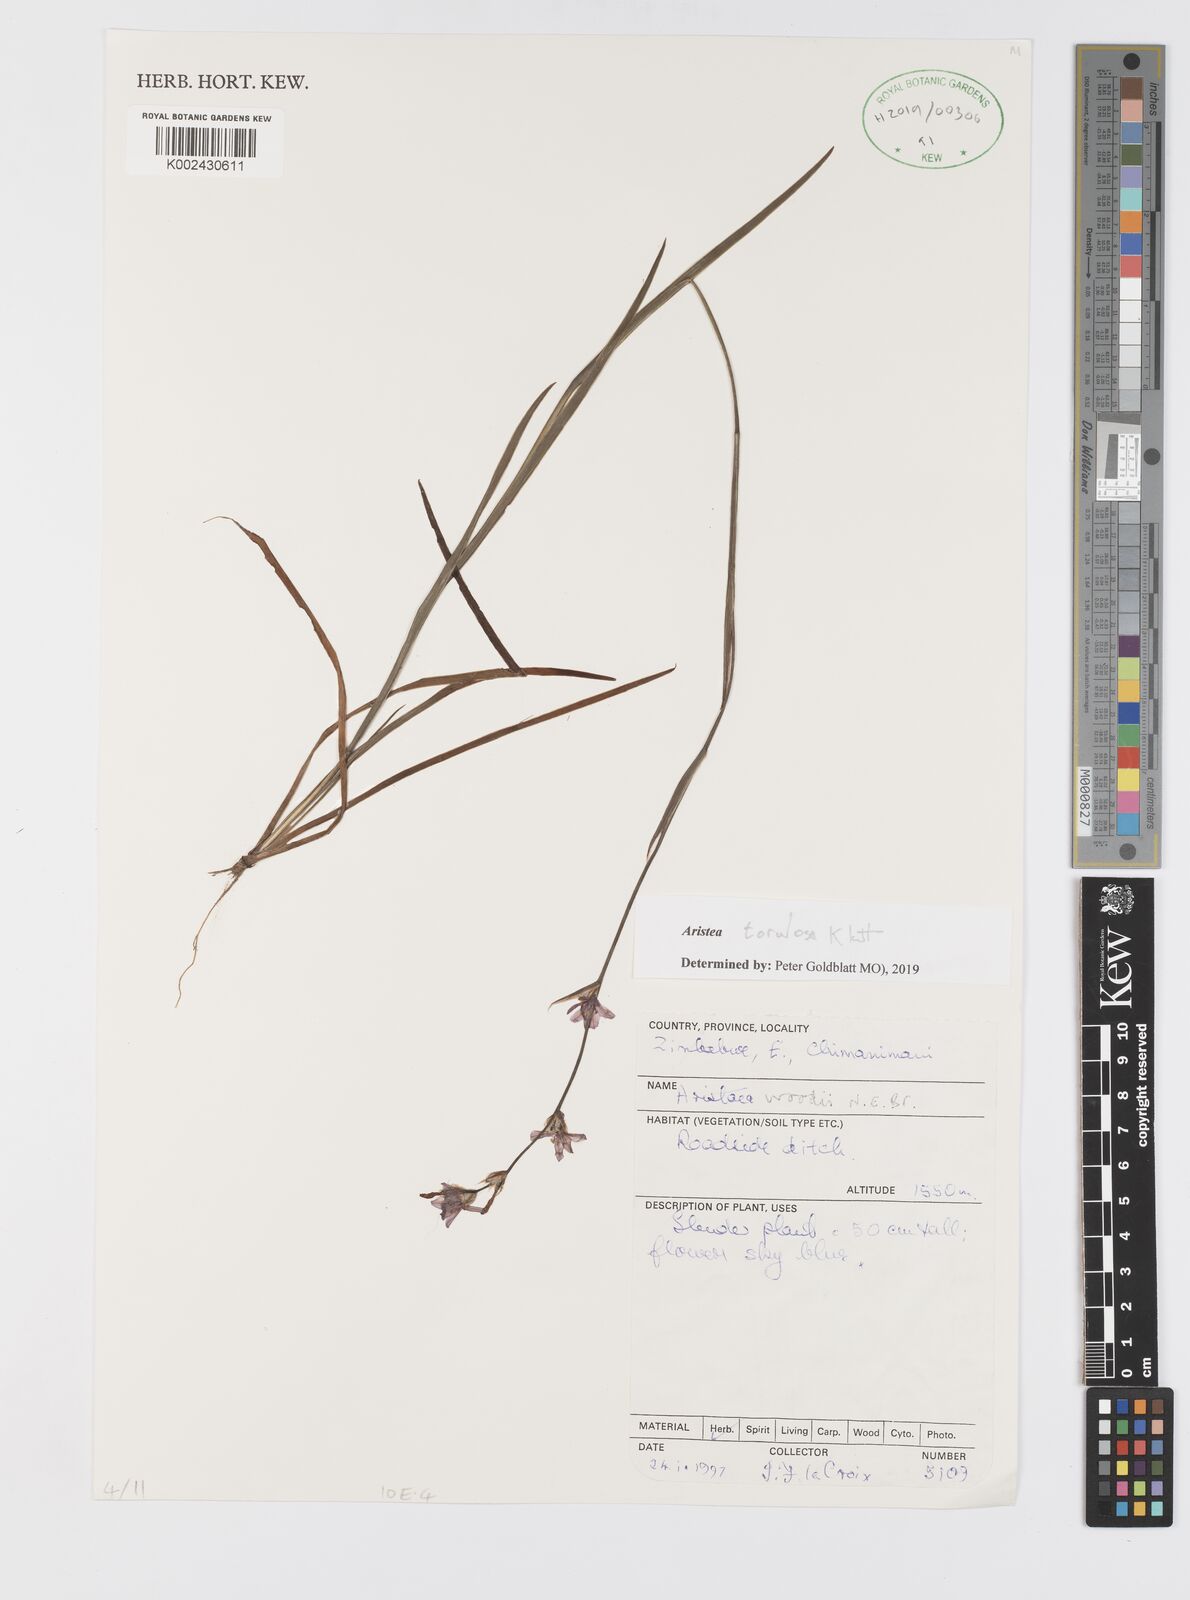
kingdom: Plantae
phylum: Tracheophyta
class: Liliopsida
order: Asparagales
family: Iridaceae
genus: Aristea
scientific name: Aristea torulosa
